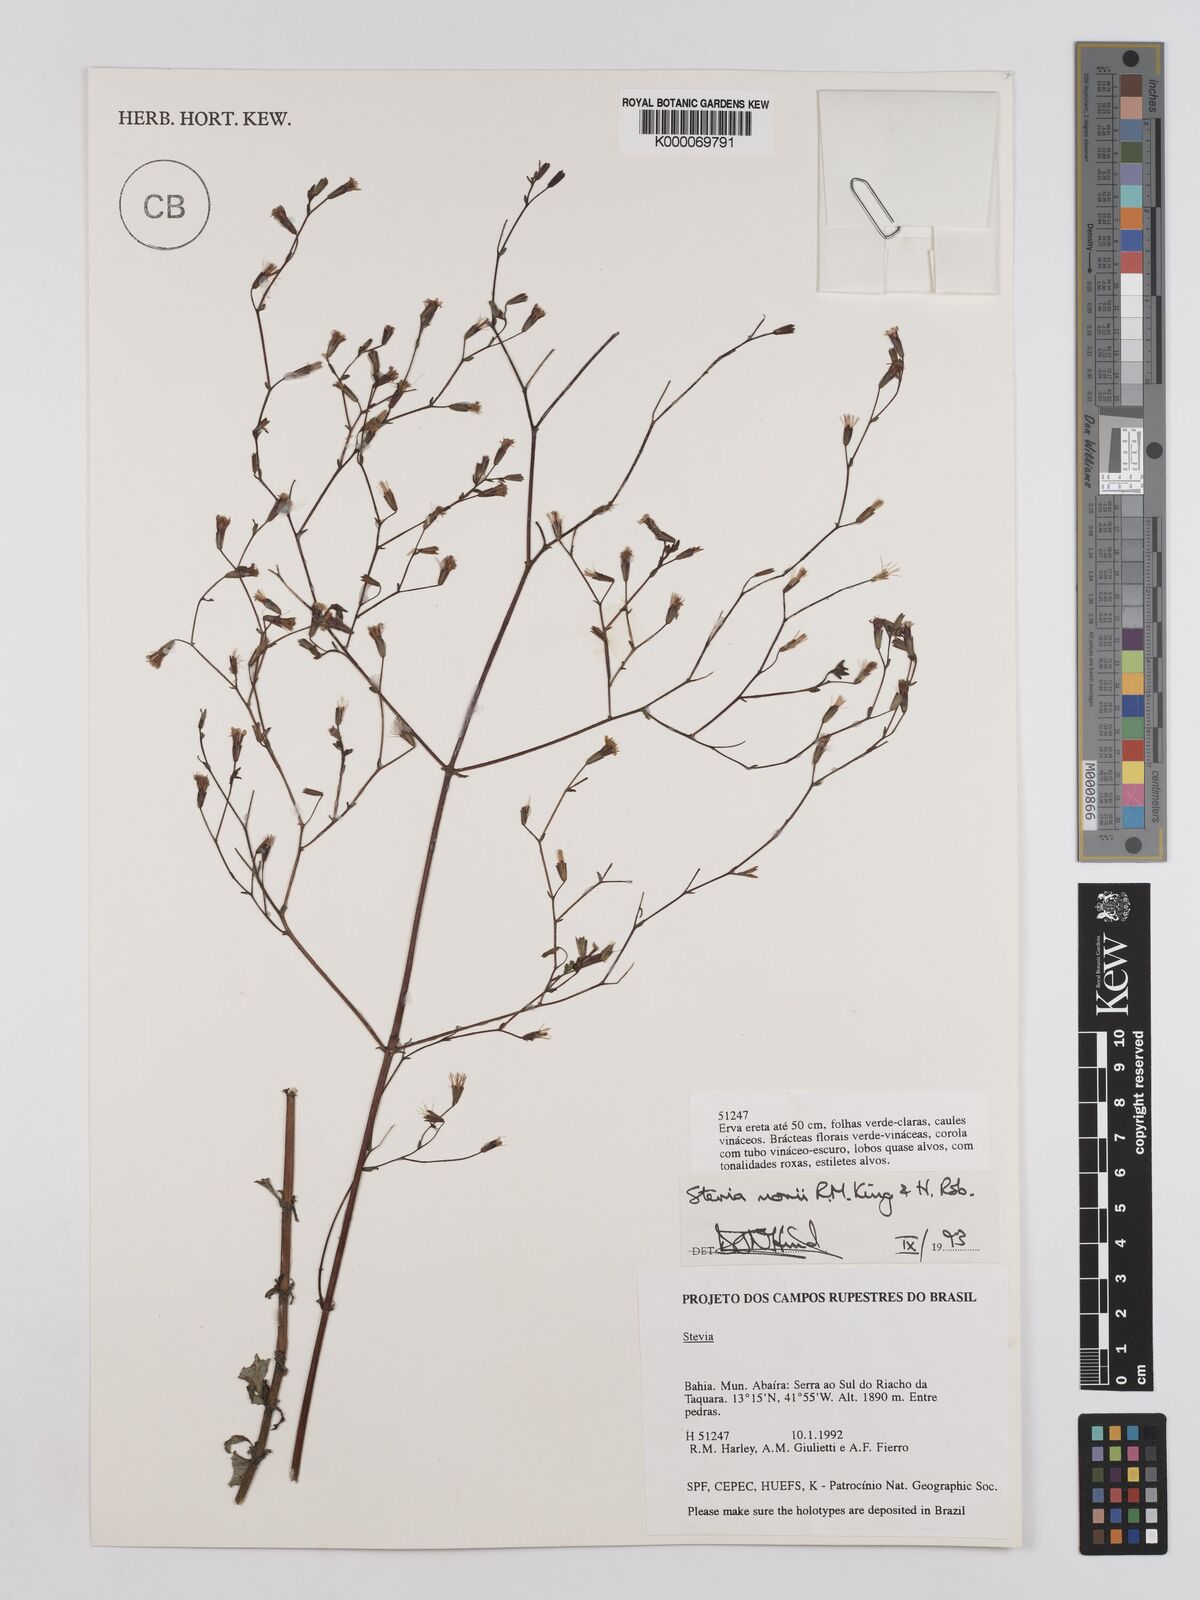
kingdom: Plantae
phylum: Tracheophyta
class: Magnoliopsida
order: Asterales
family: Asteraceae
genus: Stevia
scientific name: Stevia morii
